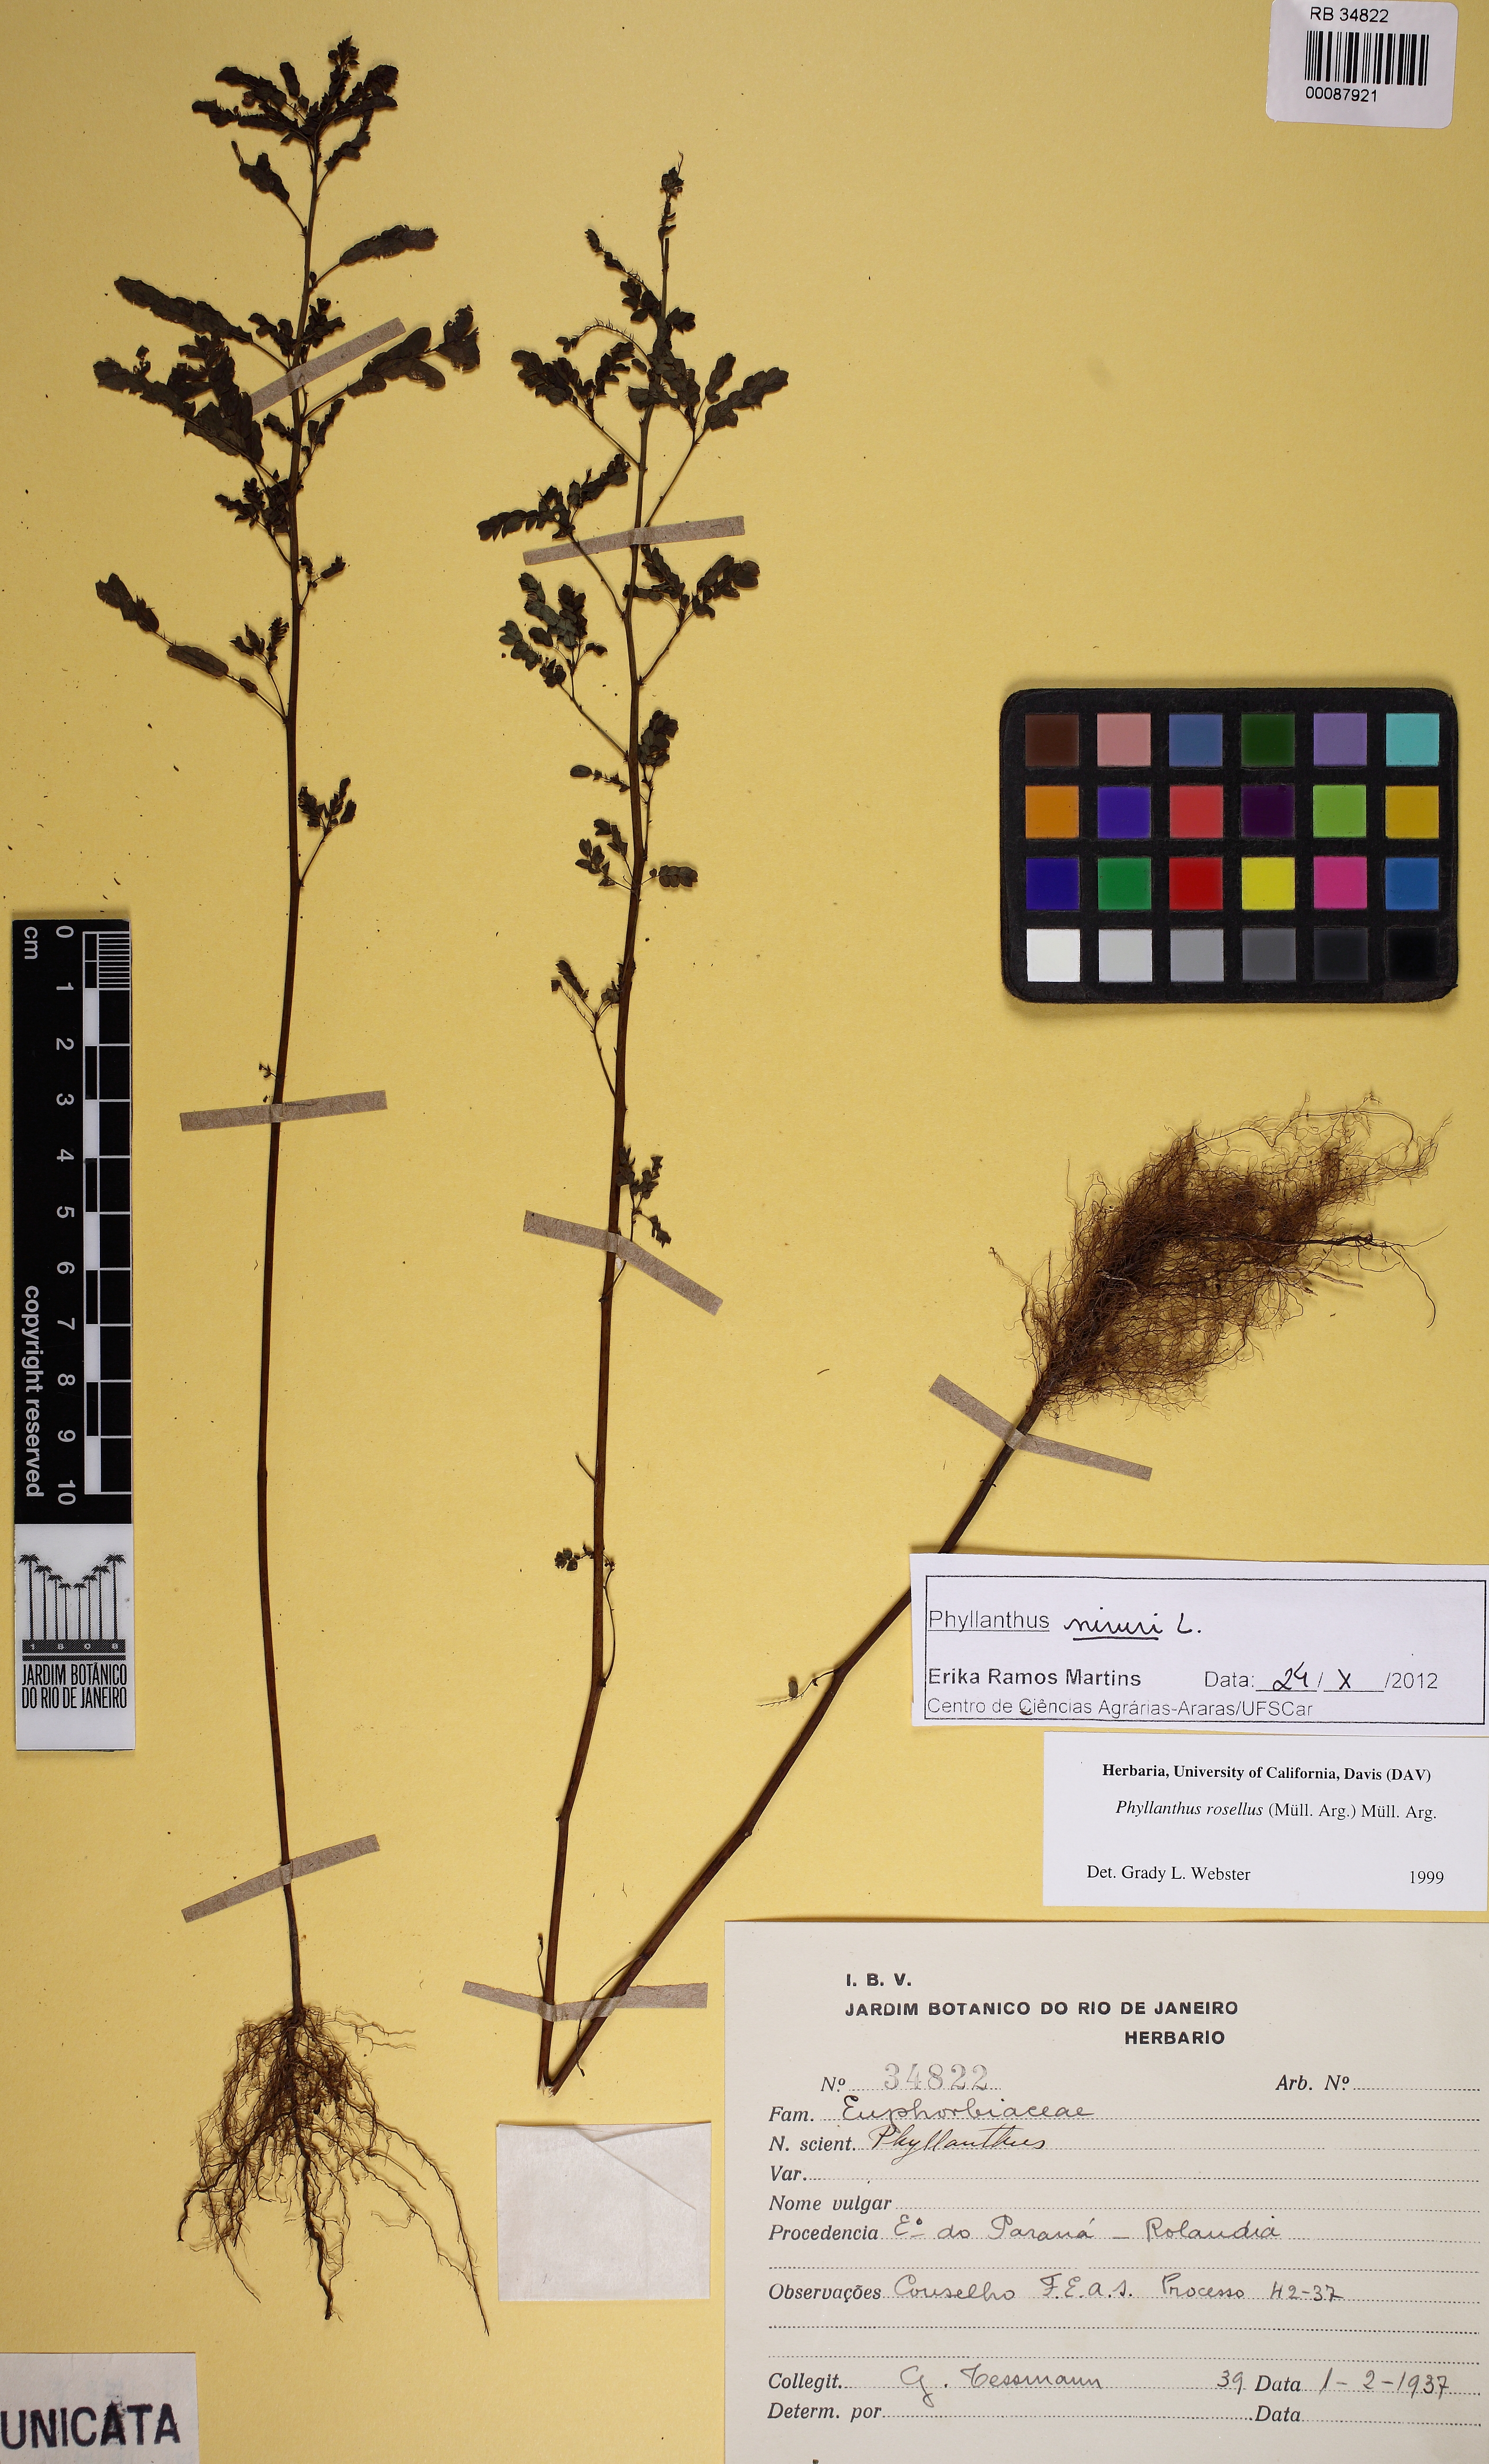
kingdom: Plantae
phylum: Tracheophyta
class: Magnoliopsida
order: Malpighiales
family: Phyllanthaceae
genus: Phyllanthus
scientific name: Phyllanthus niruri
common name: Niruri
